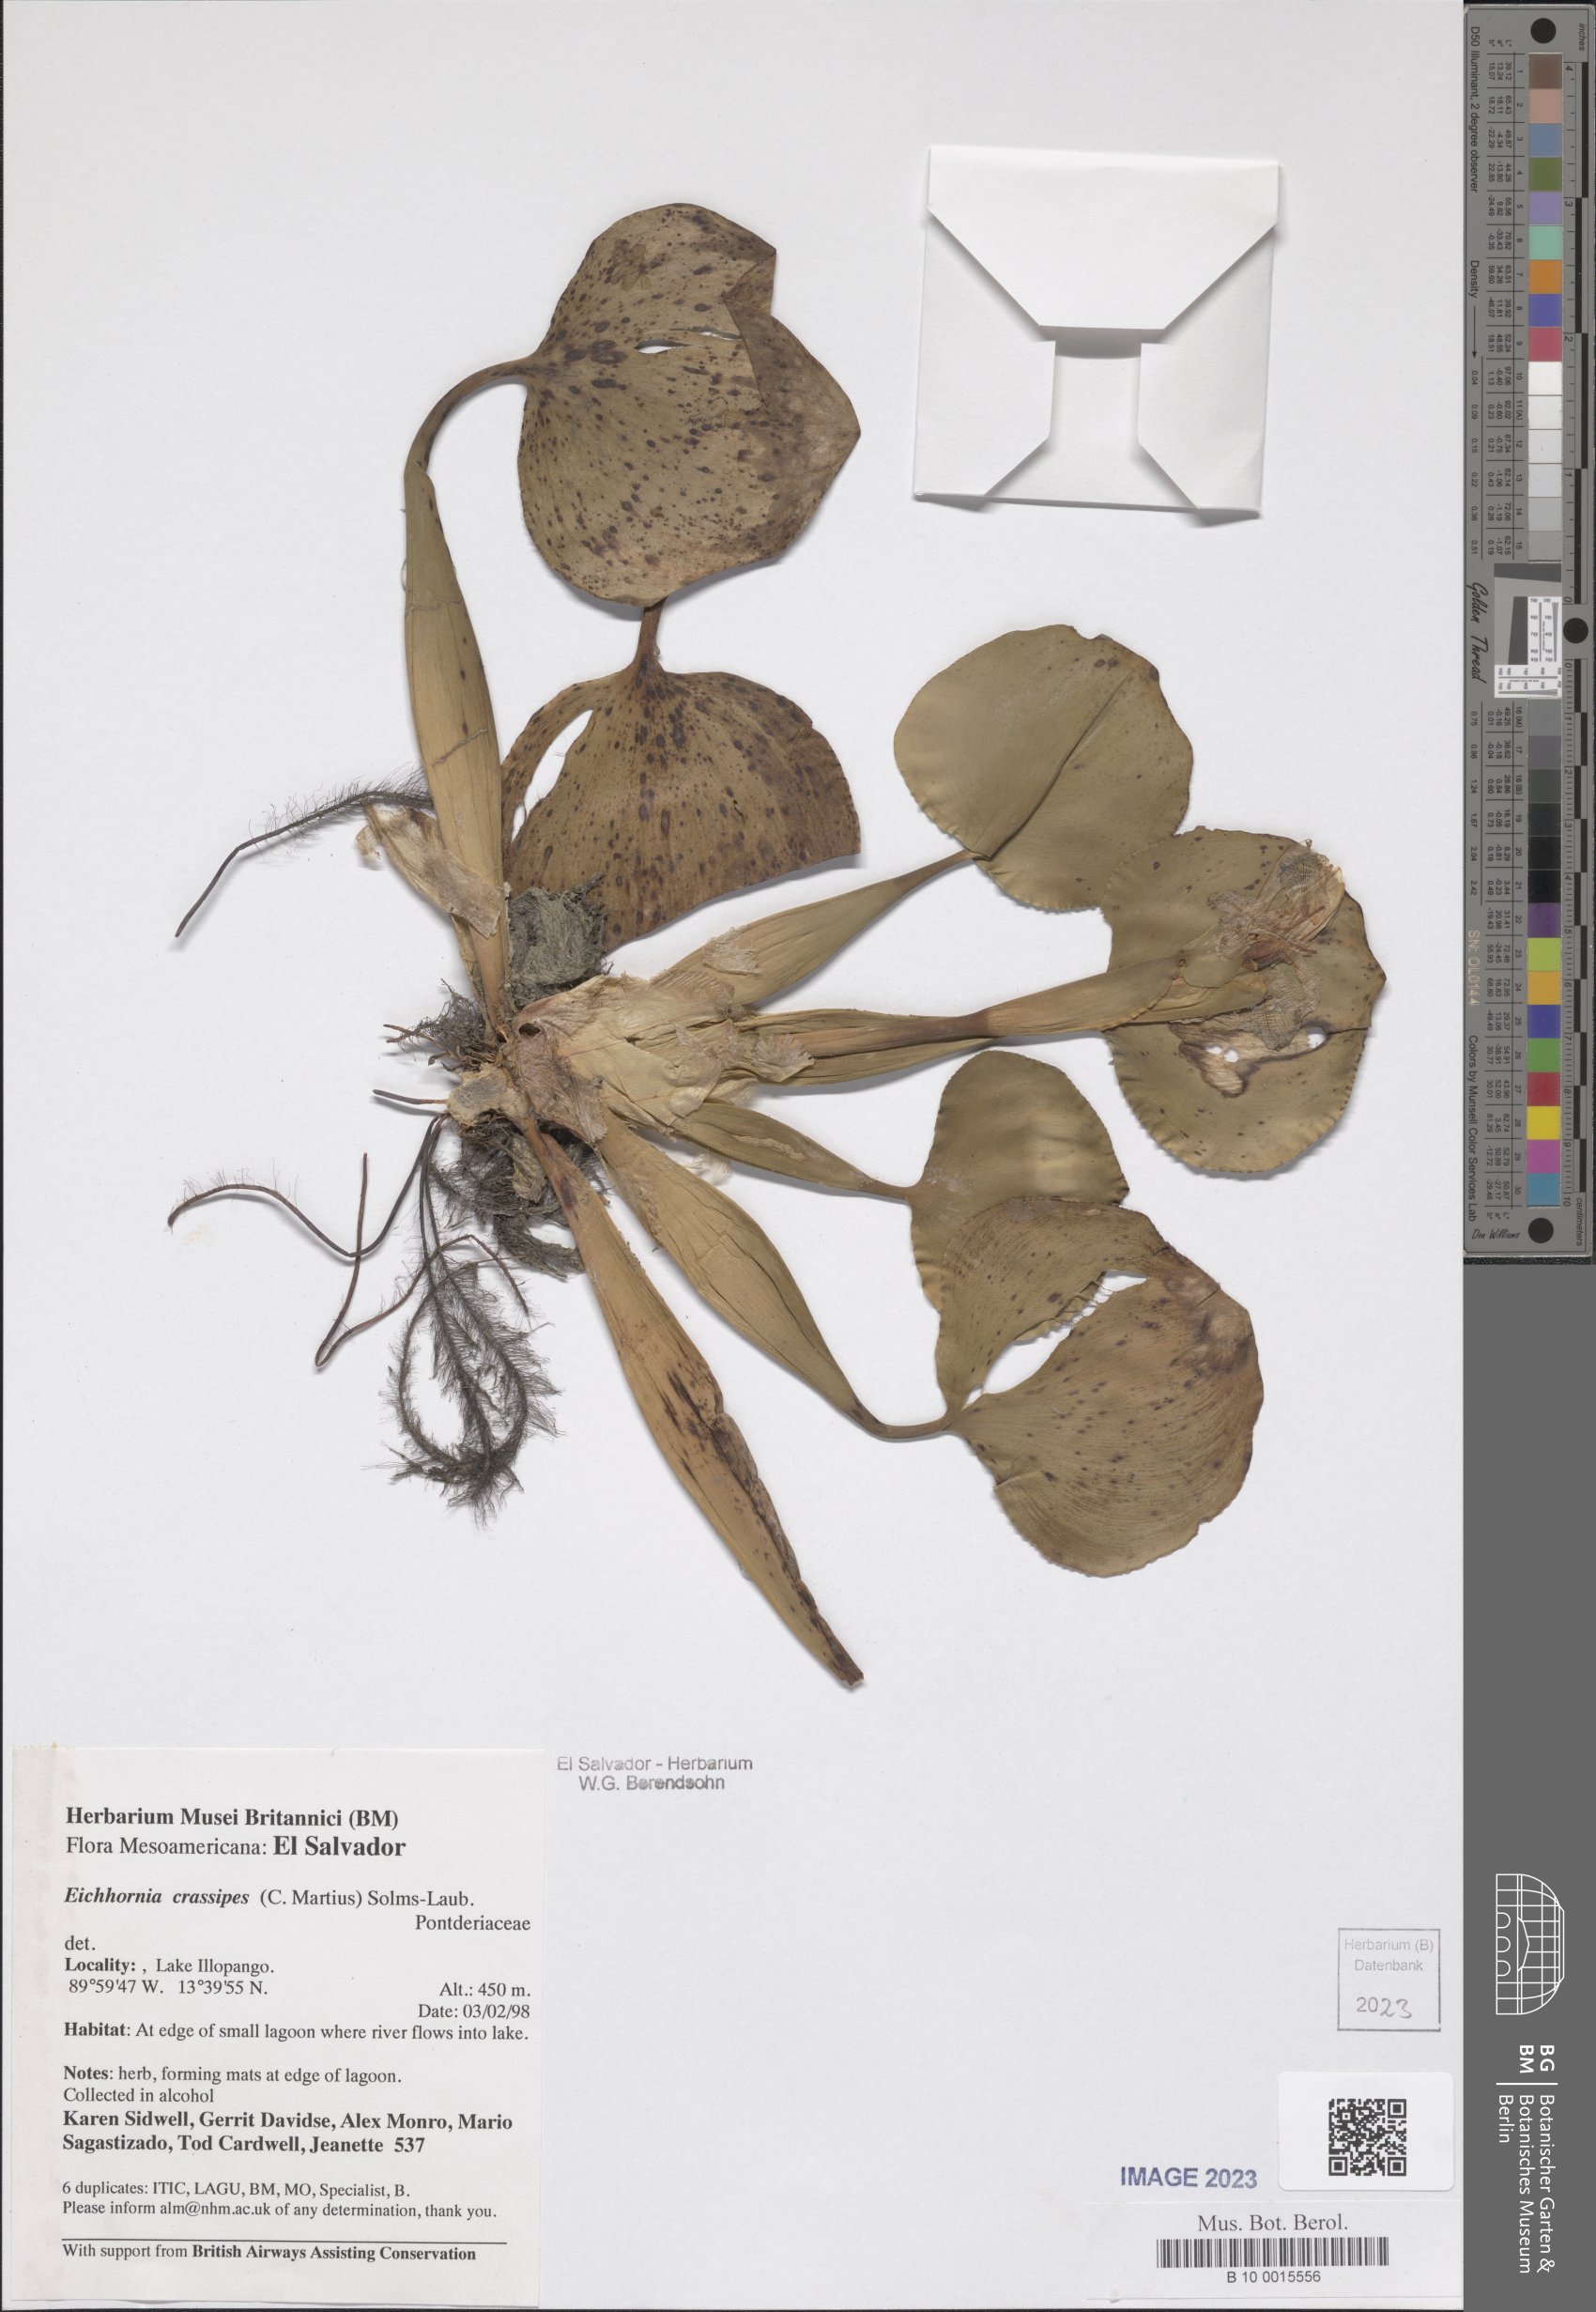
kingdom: Plantae
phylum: Tracheophyta
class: Liliopsida
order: Commelinales
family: Pontederiaceae
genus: Pontederia
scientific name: Pontederia crassipes
